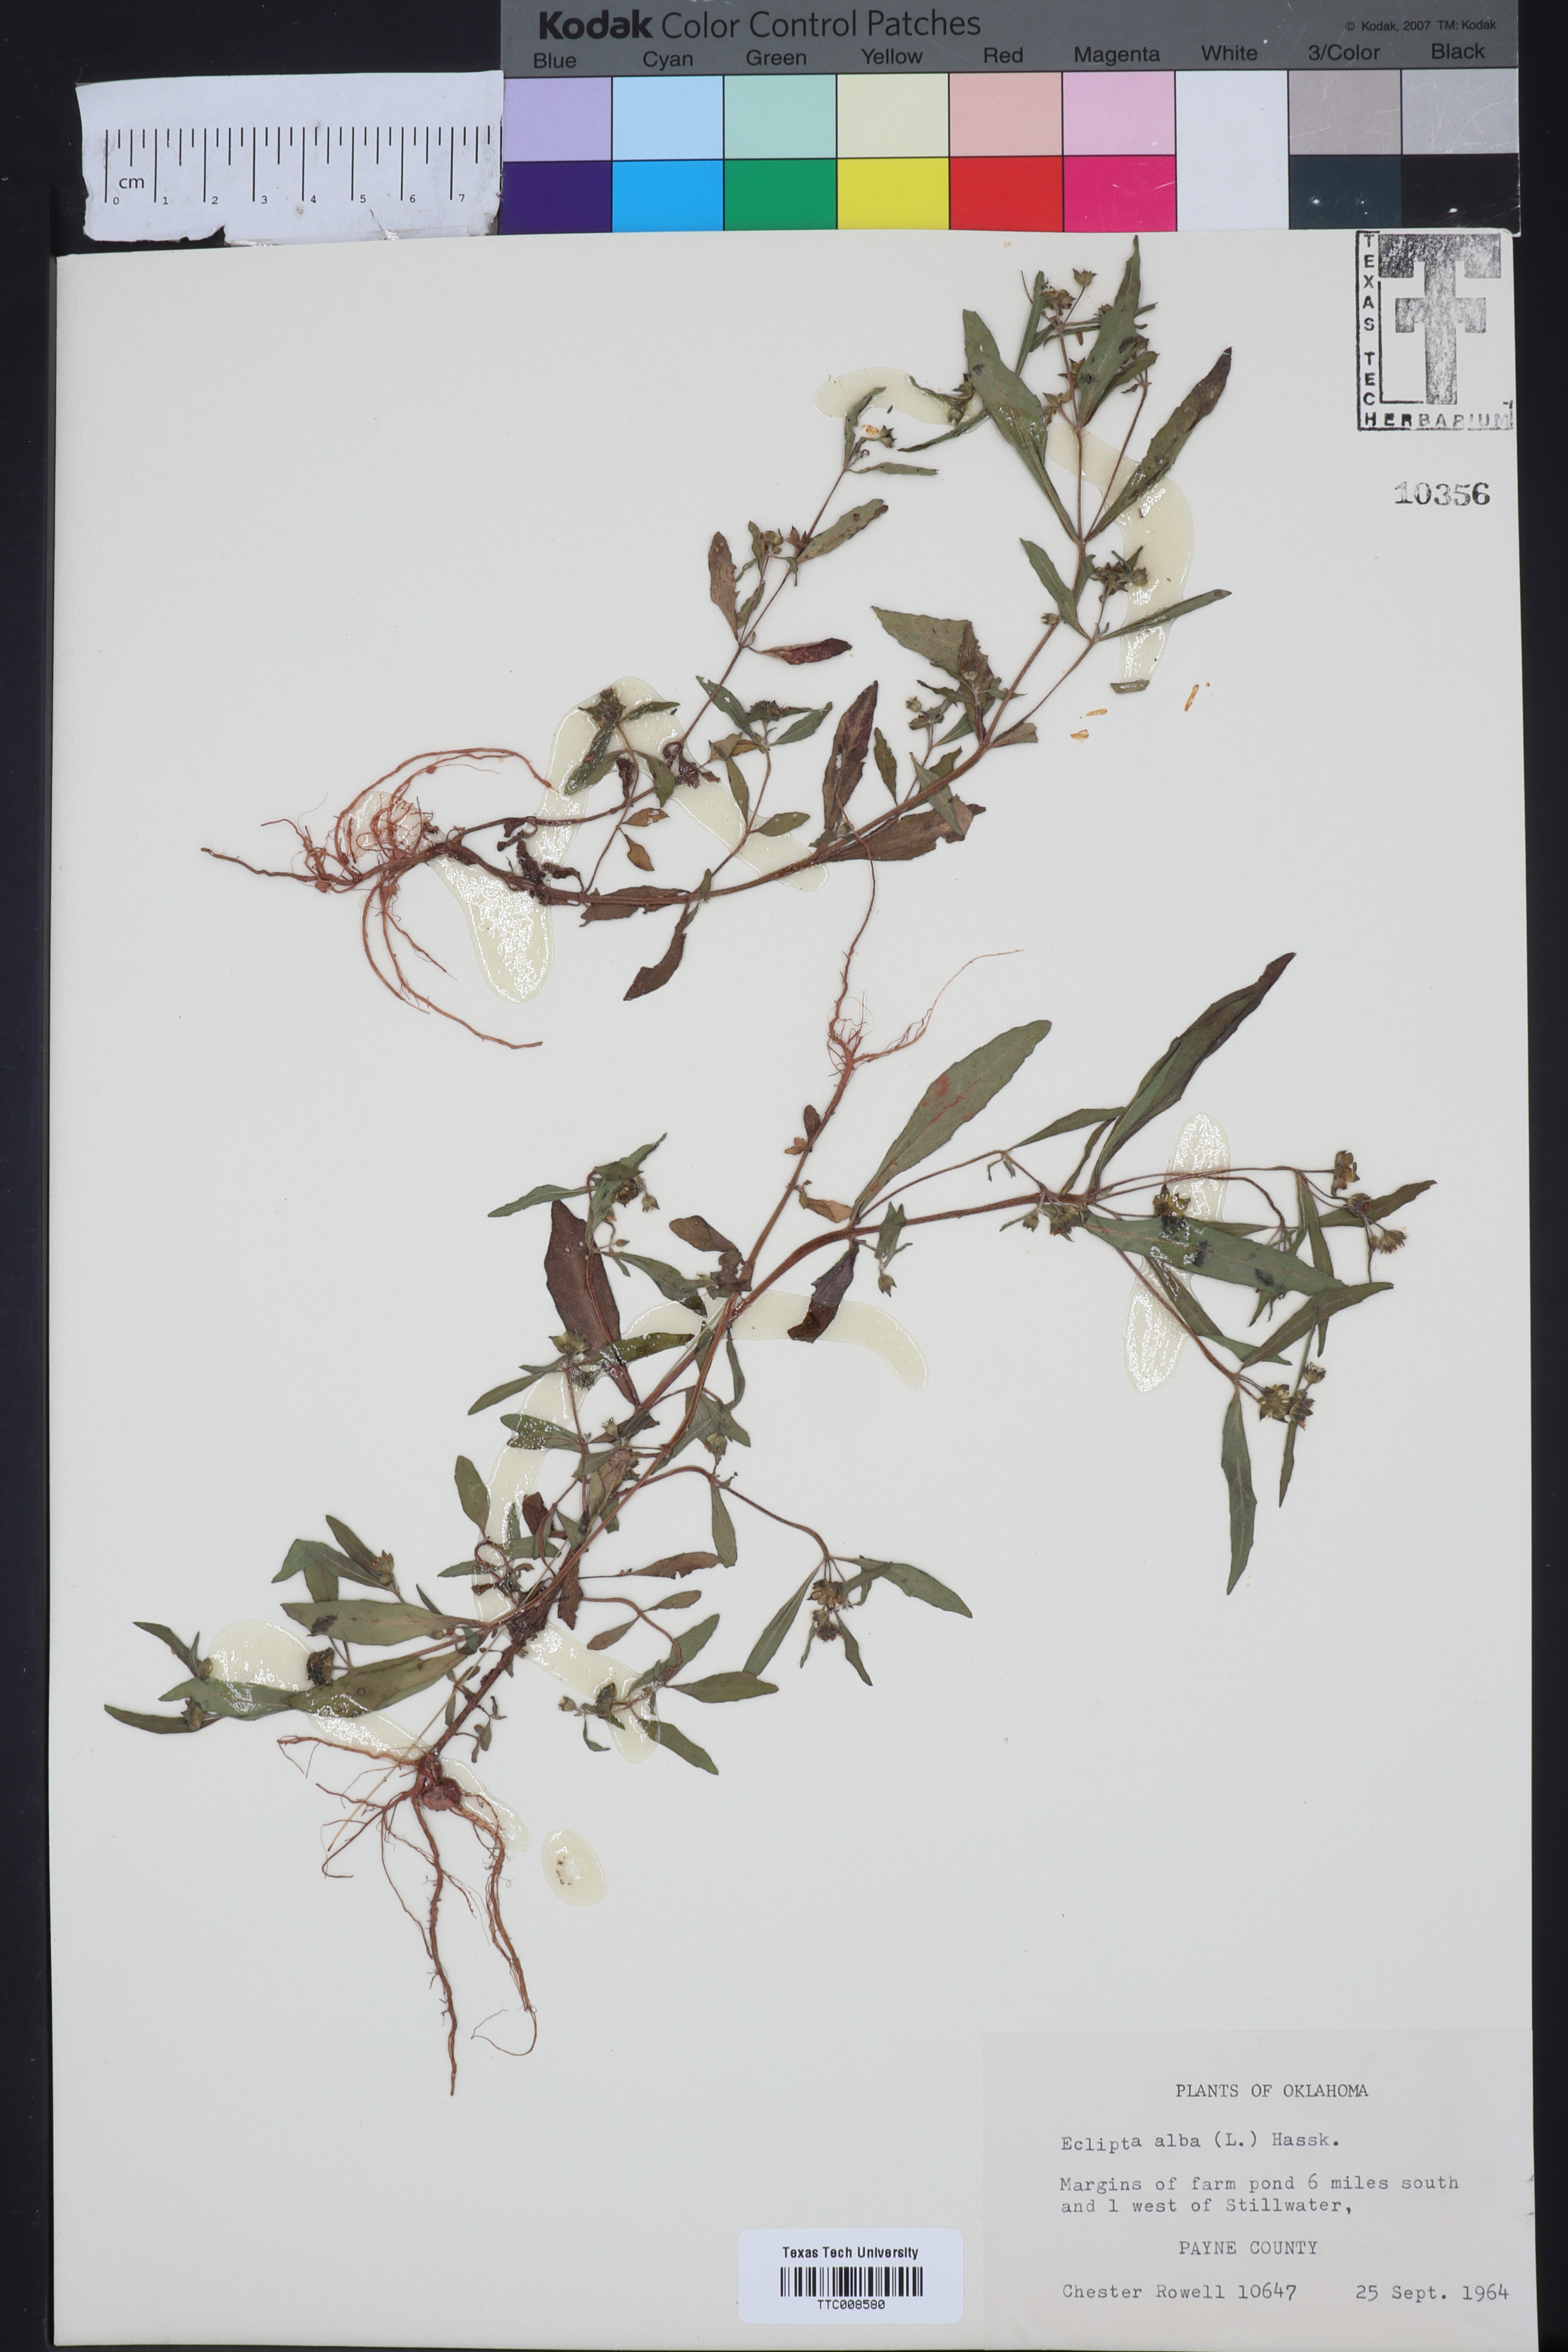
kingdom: Plantae
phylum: Tracheophyta
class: Magnoliopsida
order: Asterales
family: Asteraceae
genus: Eclipta
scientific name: Eclipta alba
